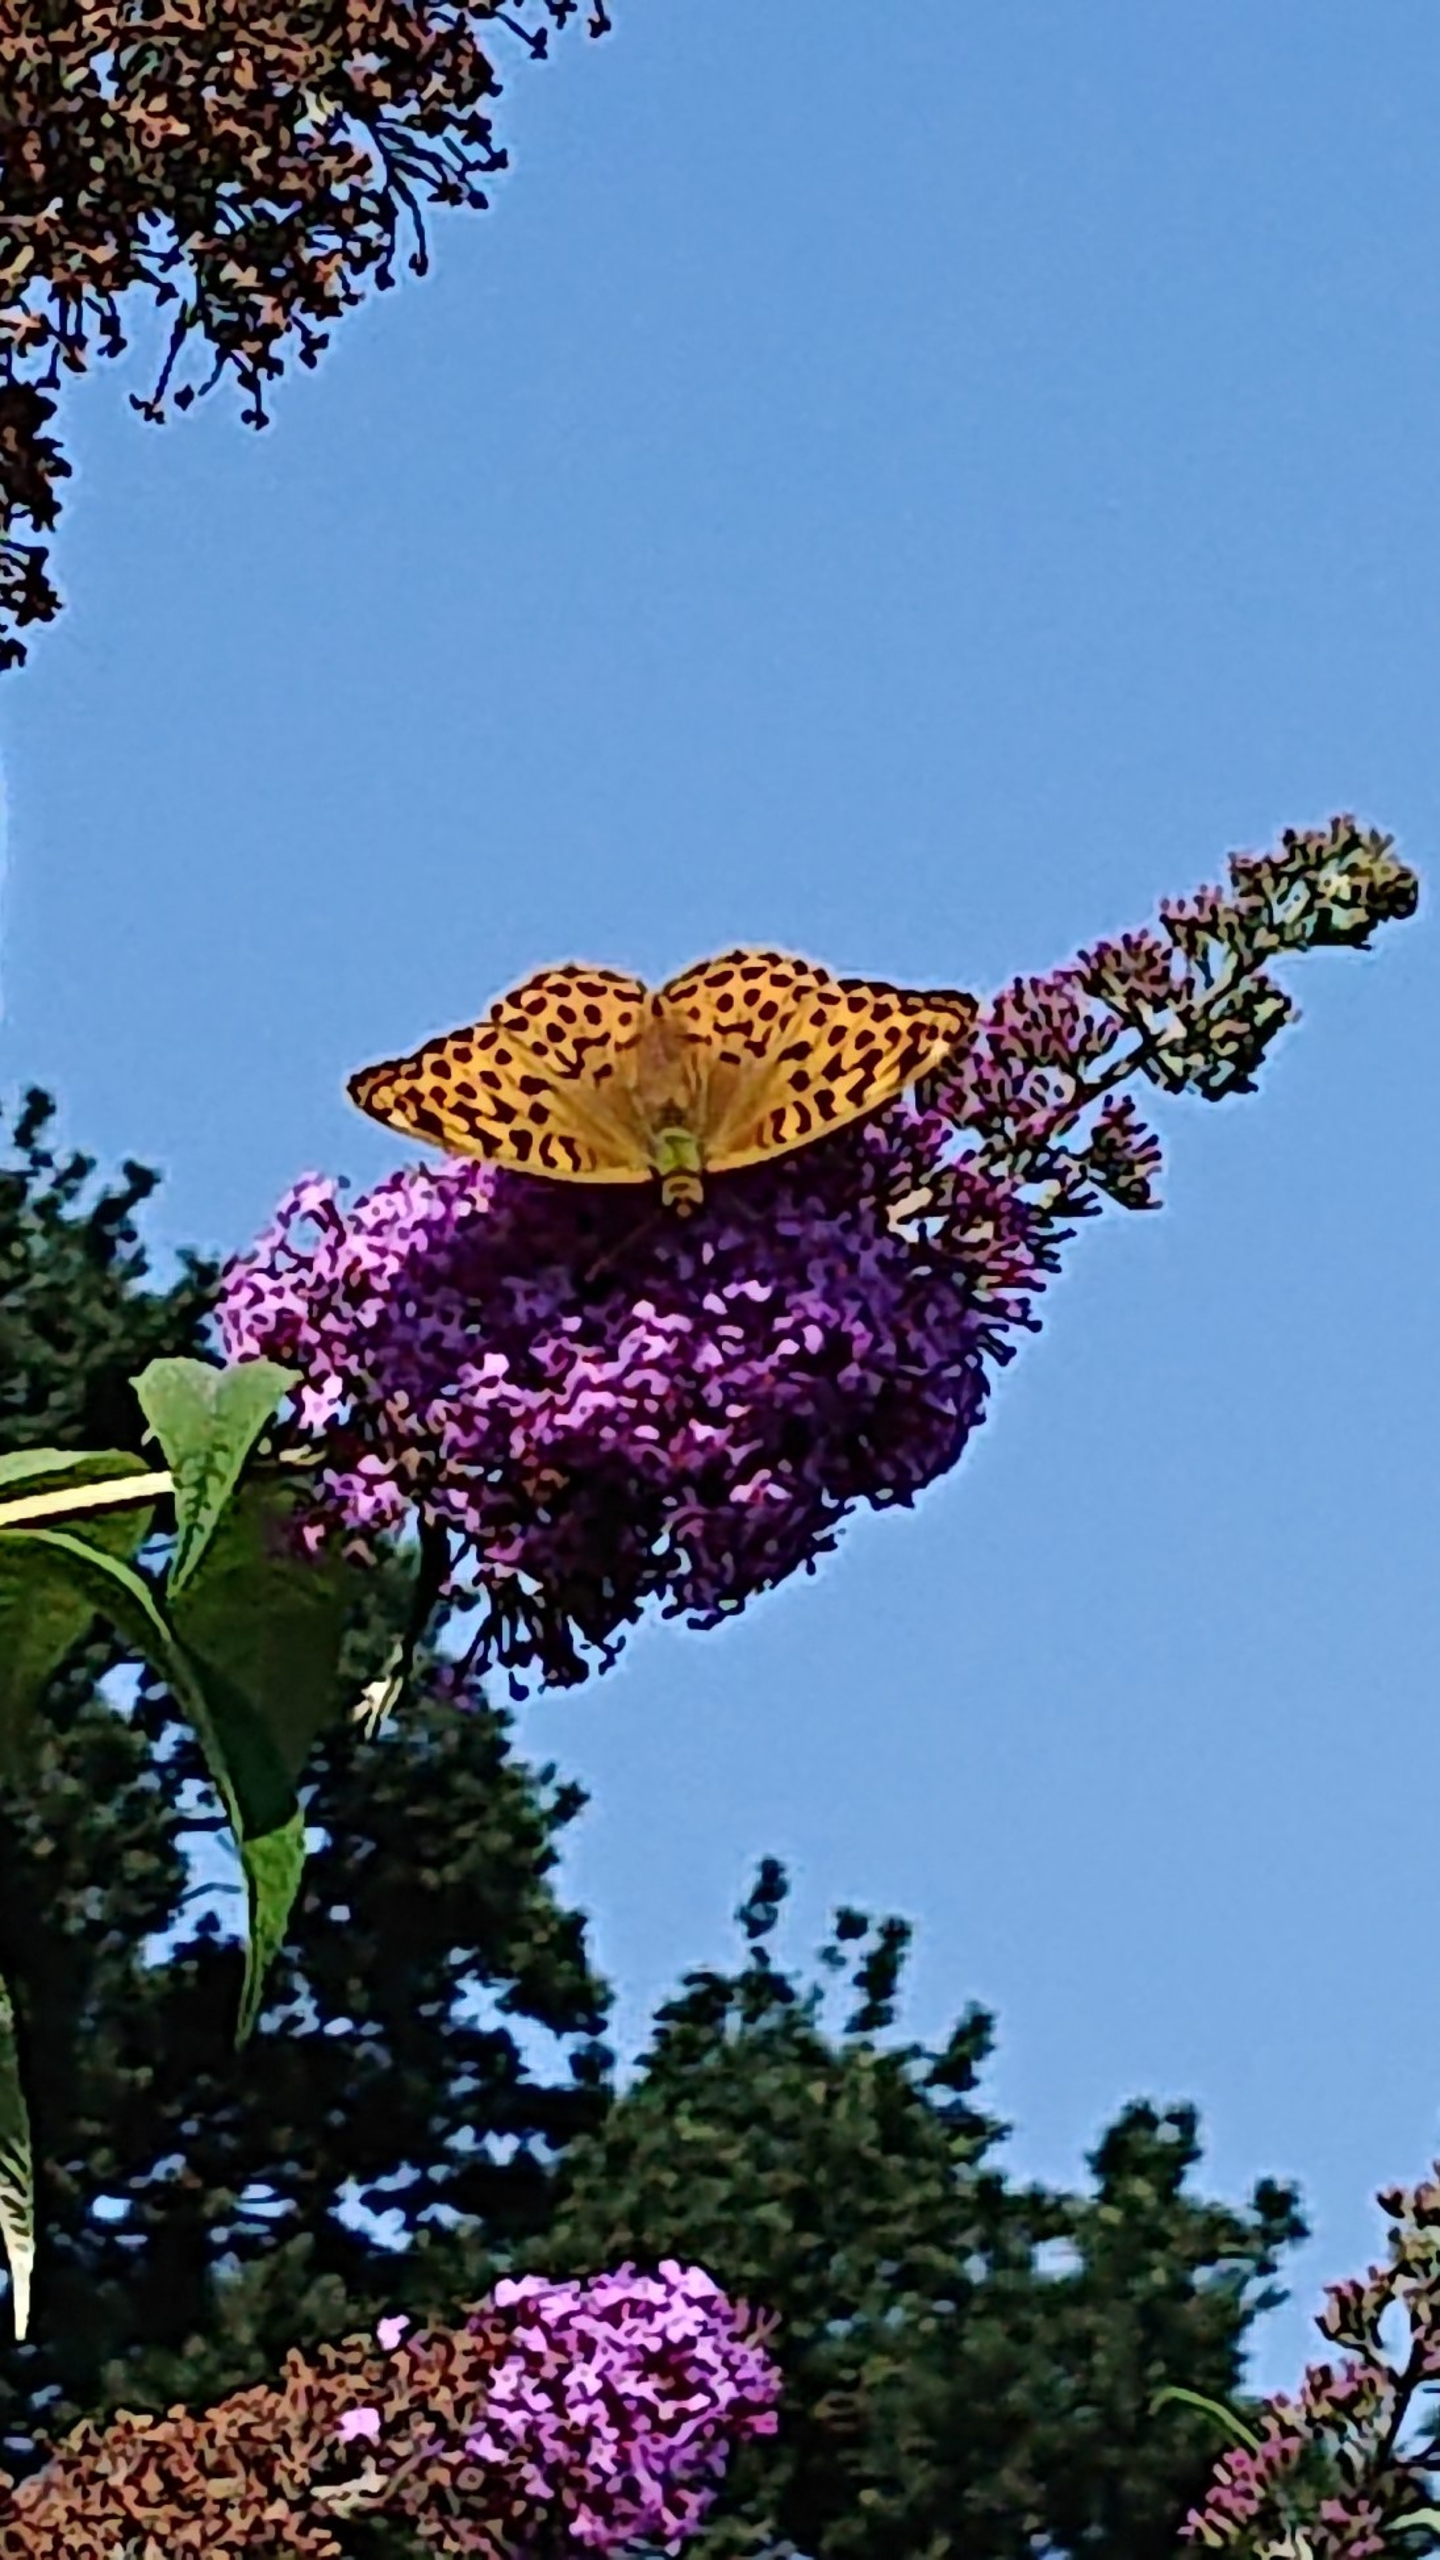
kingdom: Animalia
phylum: Arthropoda
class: Insecta
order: Lepidoptera
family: Nymphalidae
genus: Argynnis
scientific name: Argynnis paphia
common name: Kejserkåbe
